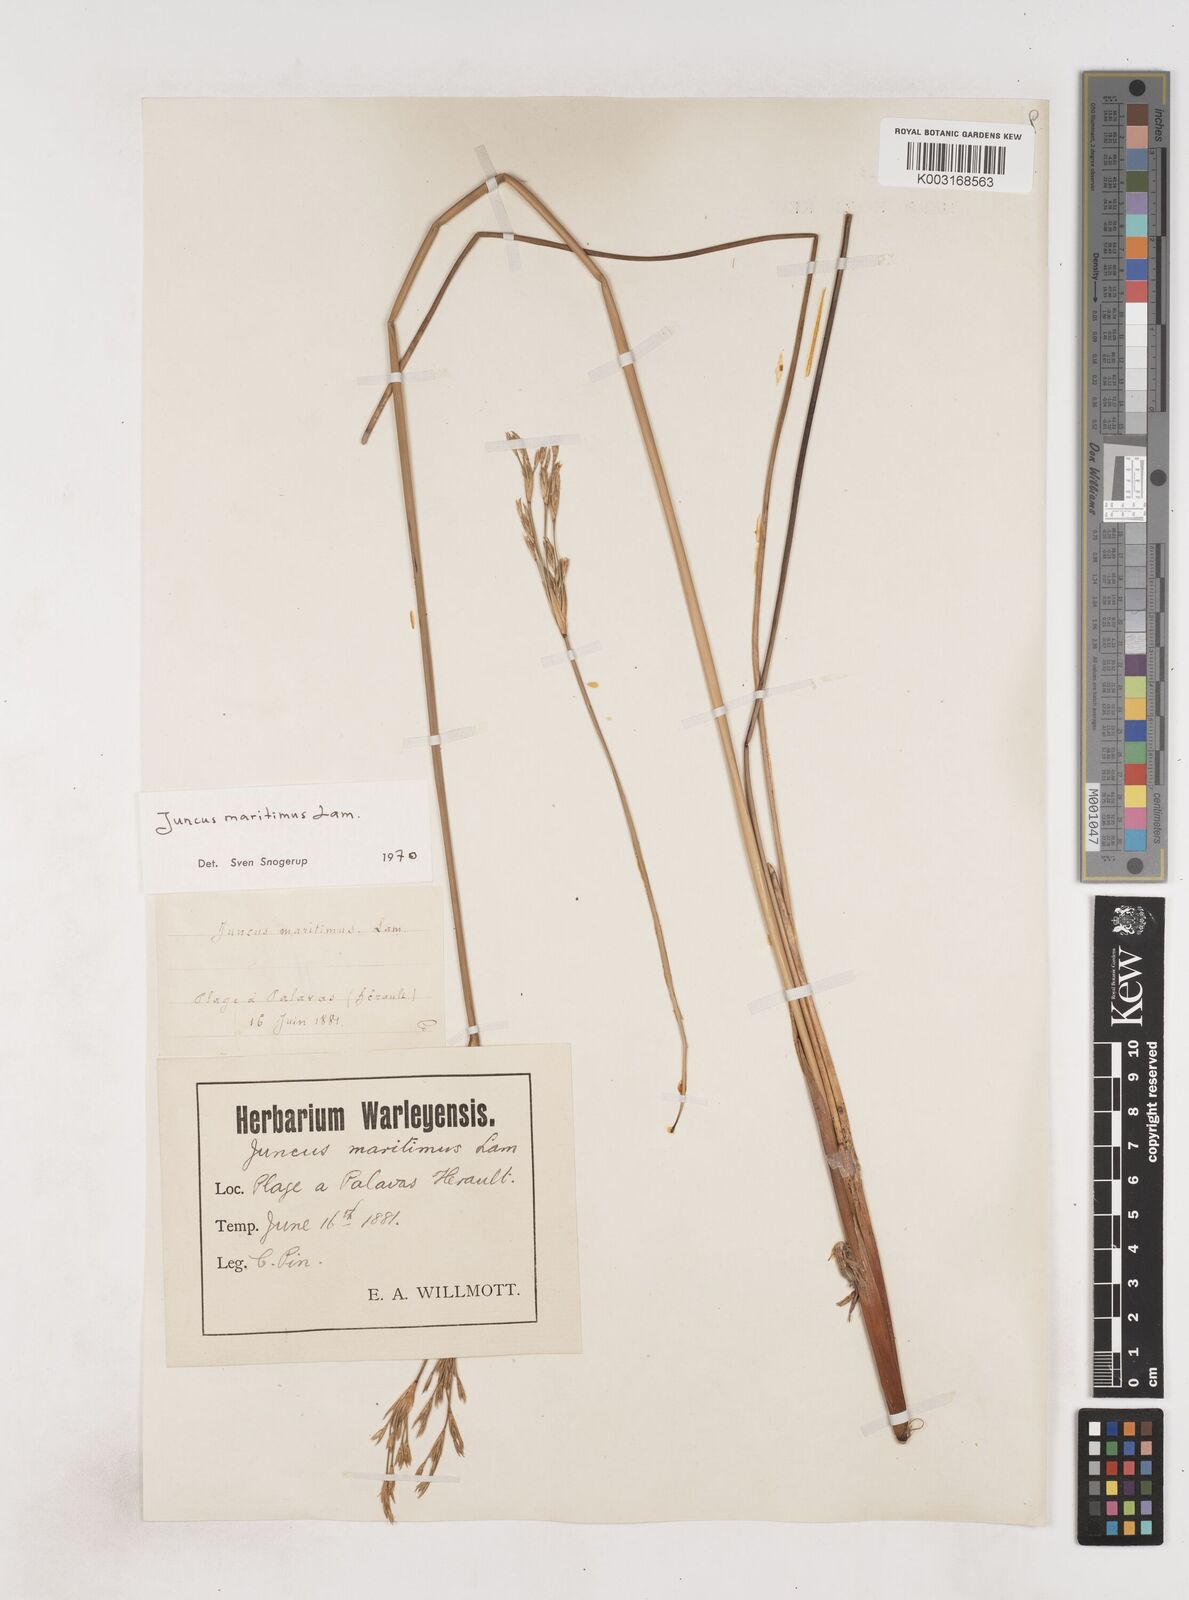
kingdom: Plantae
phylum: Tracheophyta
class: Liliopsida
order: Poales
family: Juncaceae
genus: Juncus
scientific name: Juncus maritimus
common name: Sea rush
